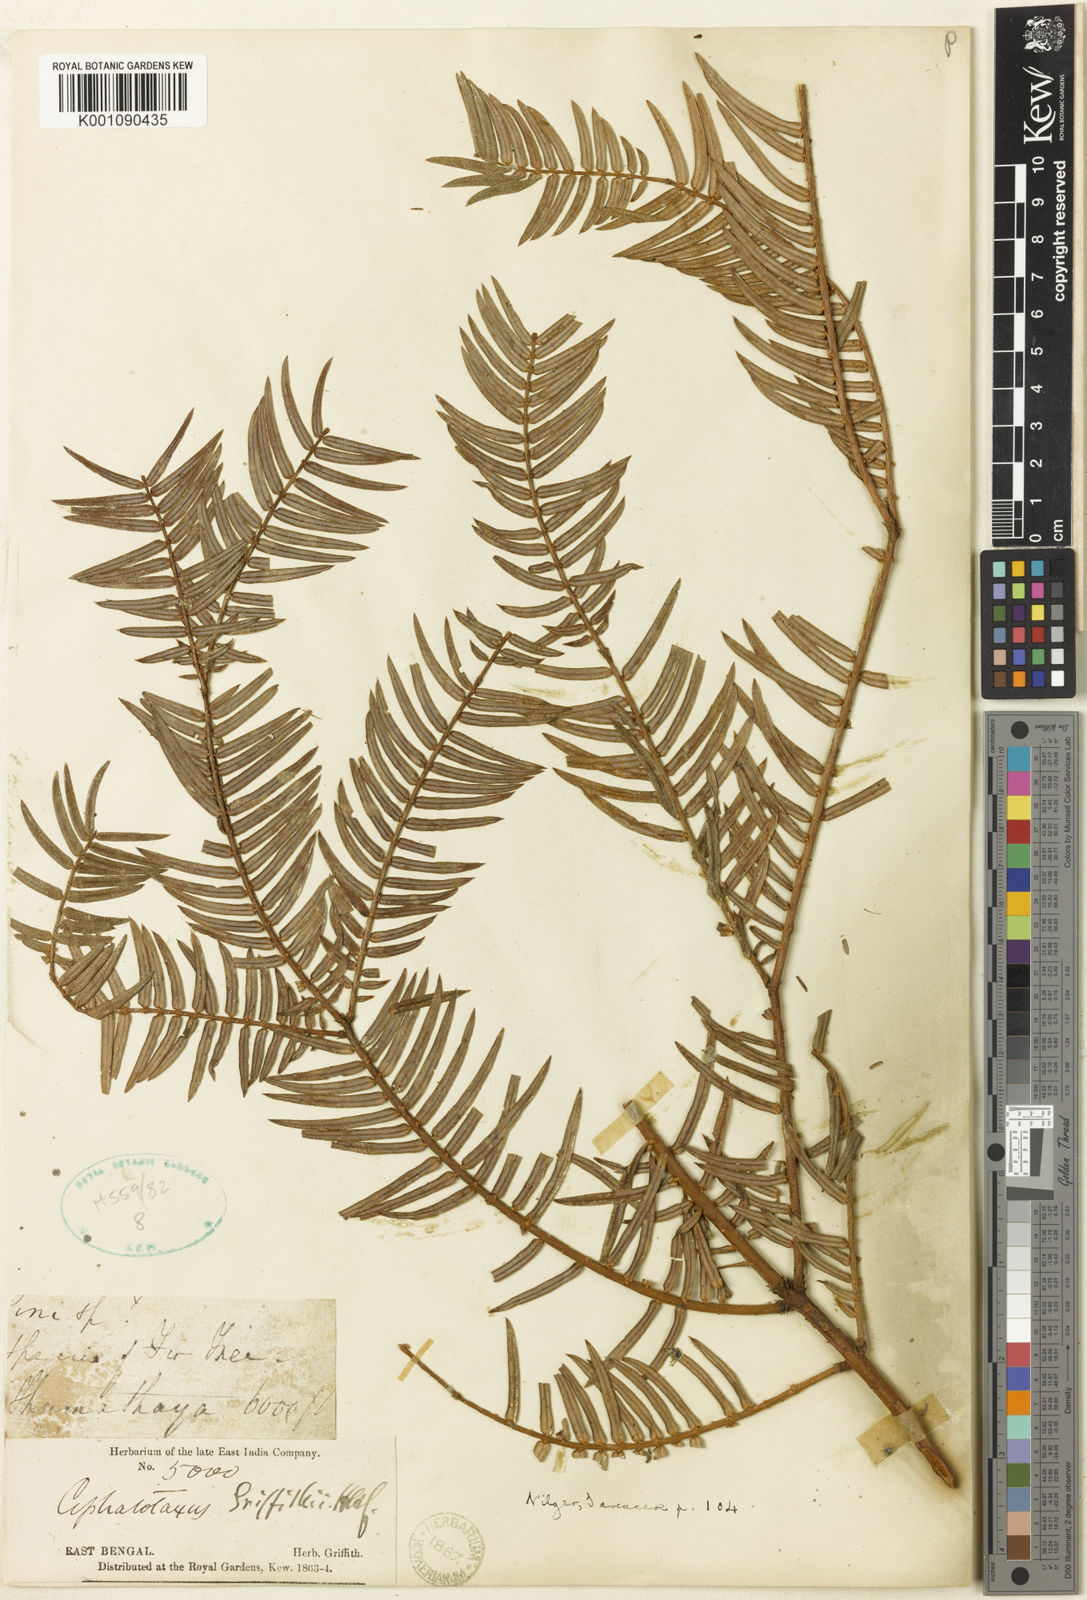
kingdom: Plantae
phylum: Tracheophyta
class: Pinopsida
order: Pinales
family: Cephalotaxaceae
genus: Cephalotaxus
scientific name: Cephalotaxus mannii
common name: Mann's yew plum
